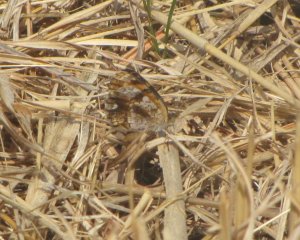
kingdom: Animalia
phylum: Arthropoda
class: Insecta
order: Lepidoptera
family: Nymphalidae
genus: Phyciodes
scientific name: Phyciodes tharos
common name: Pearl Crescent
